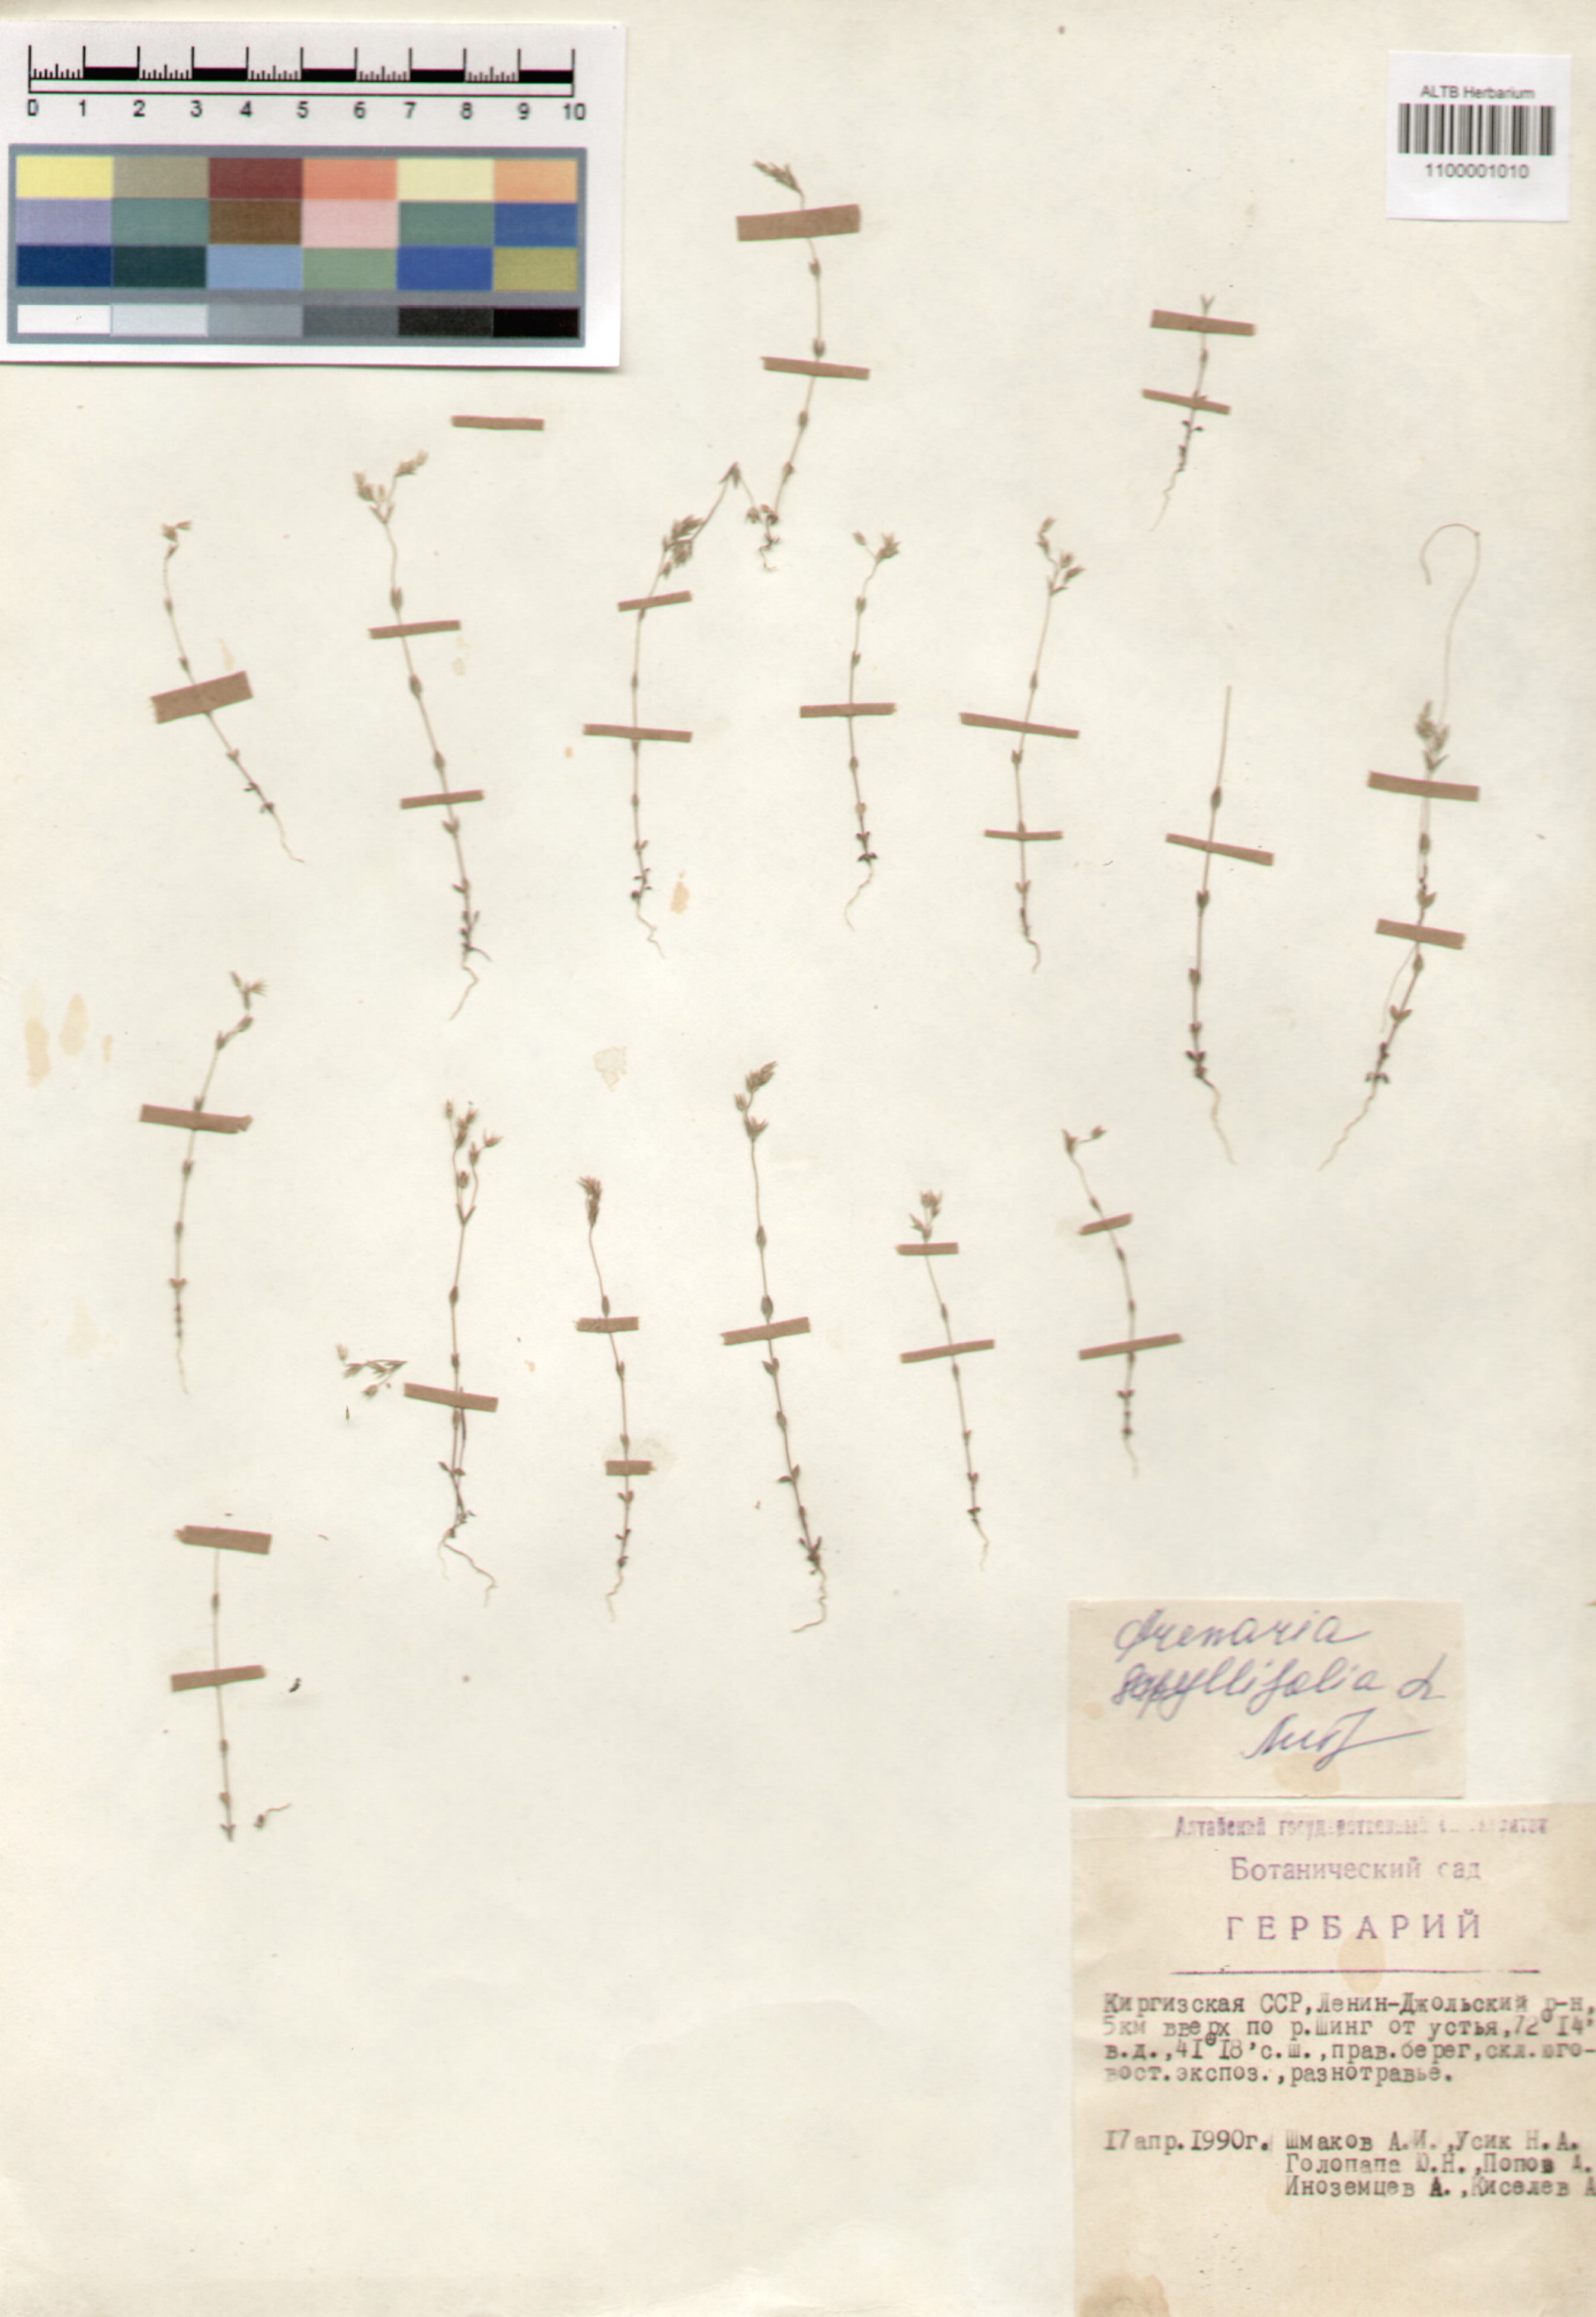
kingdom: Plantae
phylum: Tracheophyta
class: Magnoliopsida
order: Caryophyllales
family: Caryophyllaceae
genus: Arenaria
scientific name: Arenaria serpyllifolia
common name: Thyme-leaved sandwort
